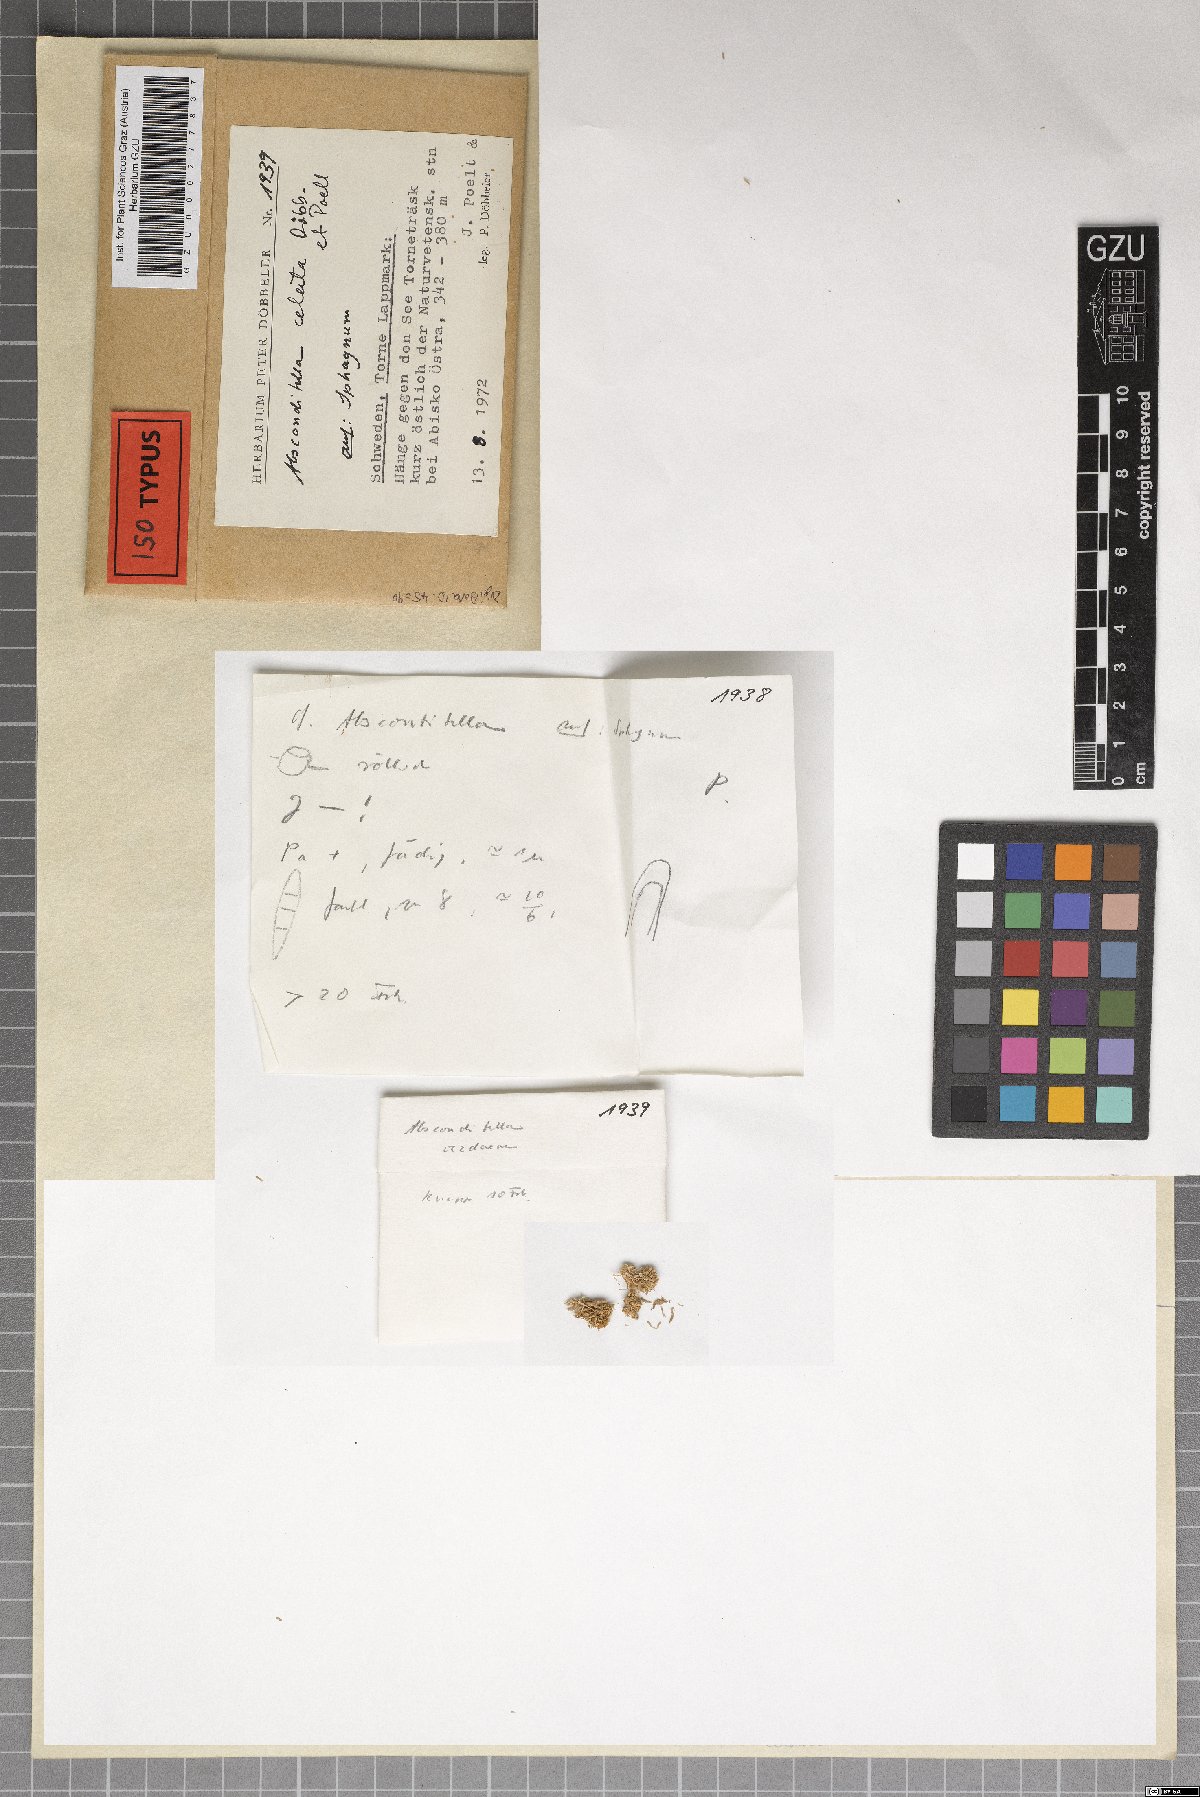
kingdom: Fungi
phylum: Ascomycota
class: Lecanoromycetes
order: Ostropales
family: Stictidaceae
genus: Absconditella
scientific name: Absconditella celata
